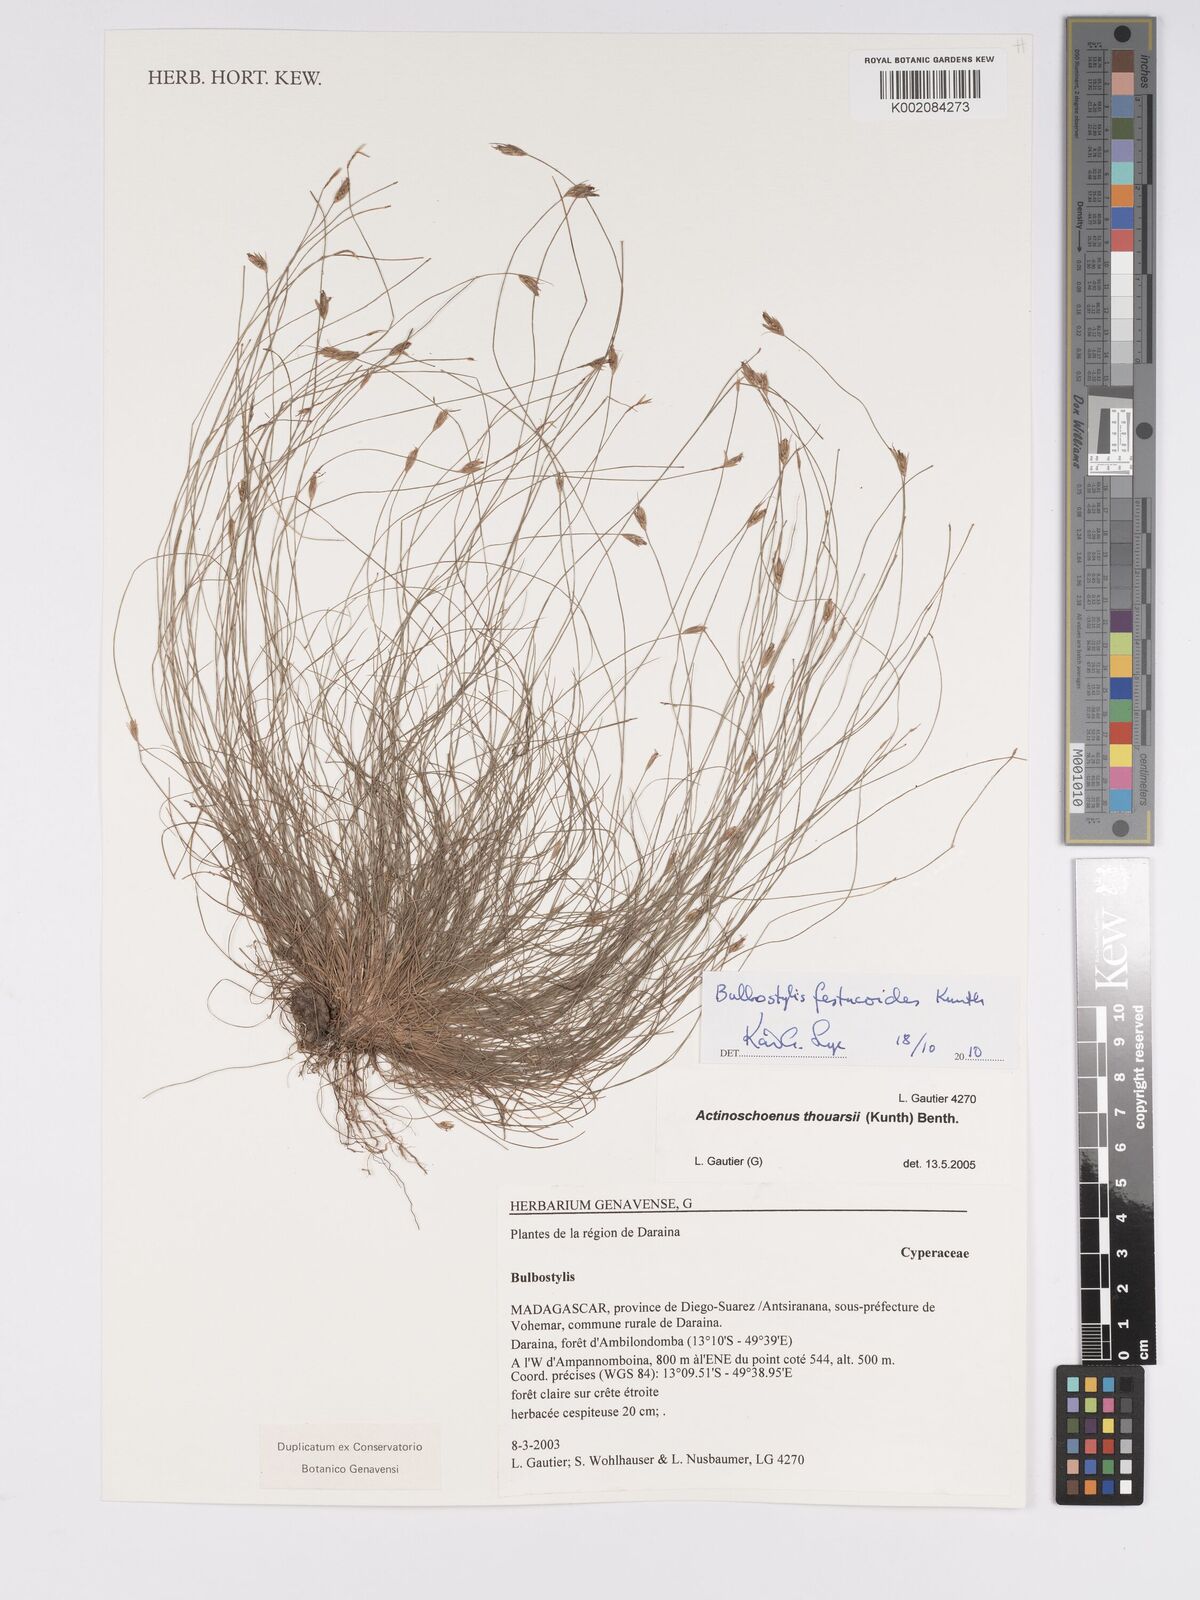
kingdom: Plantae
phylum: Tracheophyta
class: Liliopsida
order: Poales
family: Cyperaceae
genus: Bulbostylis
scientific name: Bulbostylis festucoides
